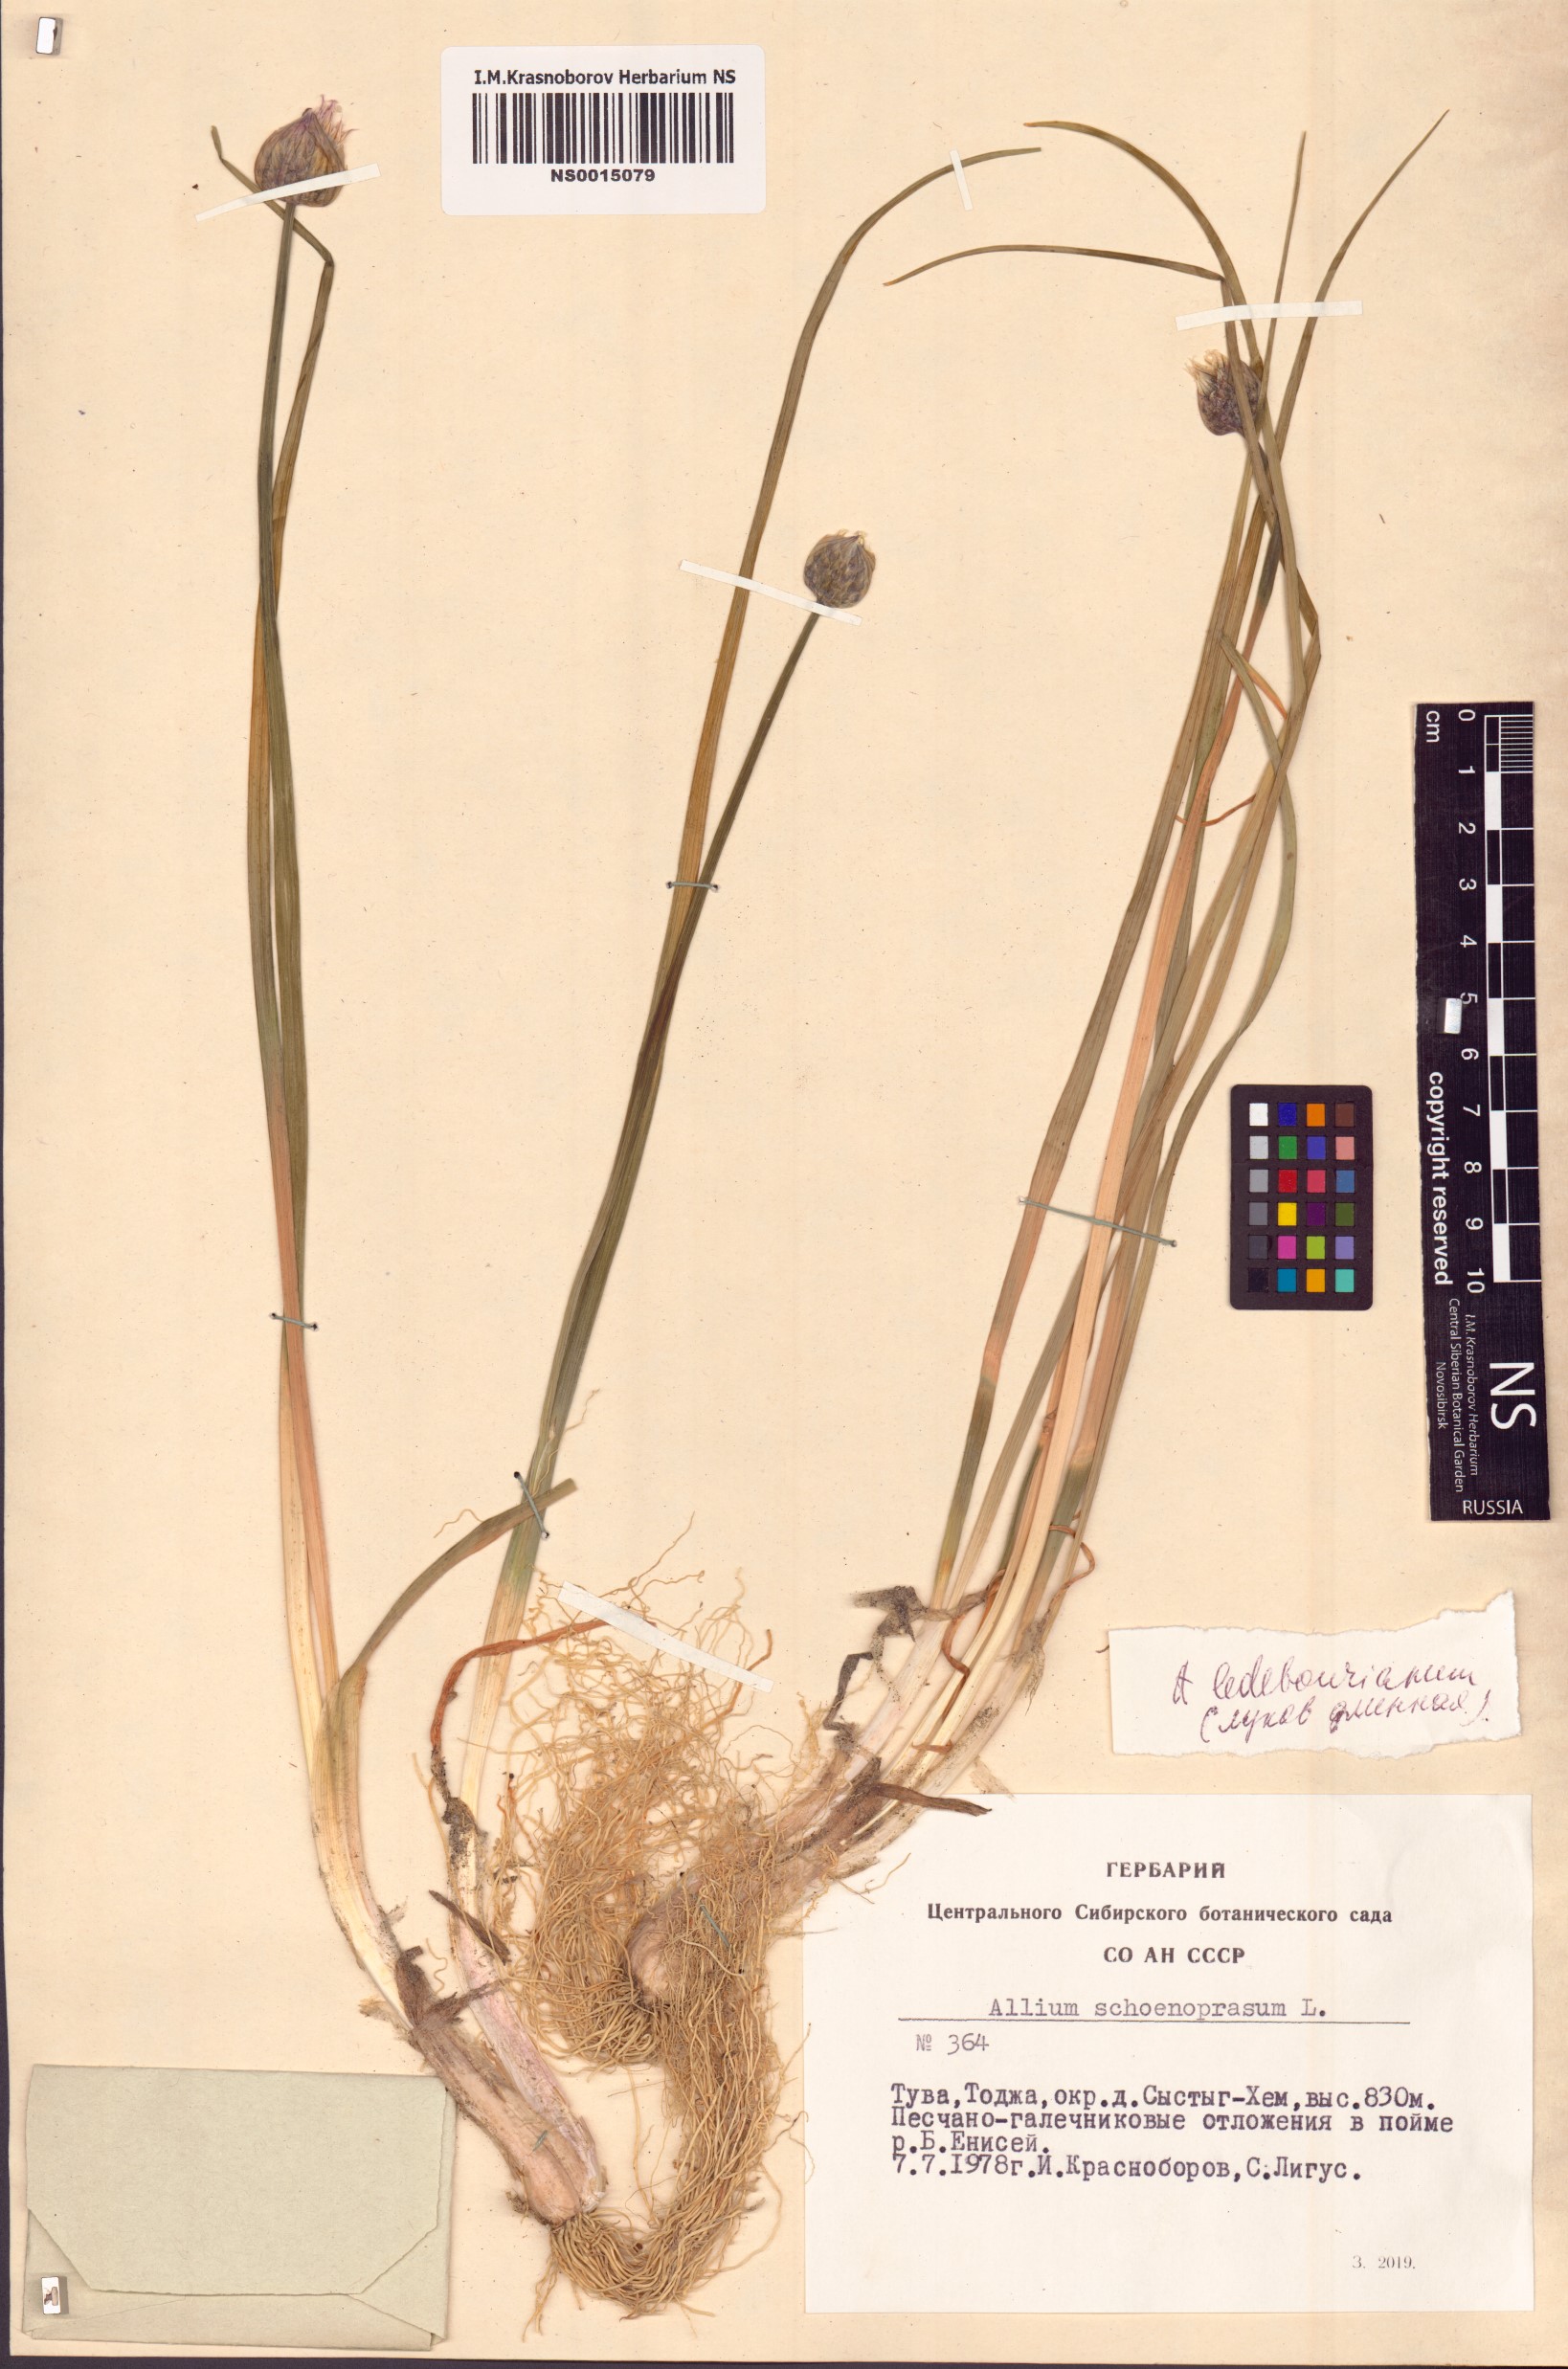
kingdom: Plantae
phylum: Tracheophyta
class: Liliopsida
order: Asparagales
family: Amaryllidaceae
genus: Allium
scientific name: Allium schoenoprasum
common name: Chives
